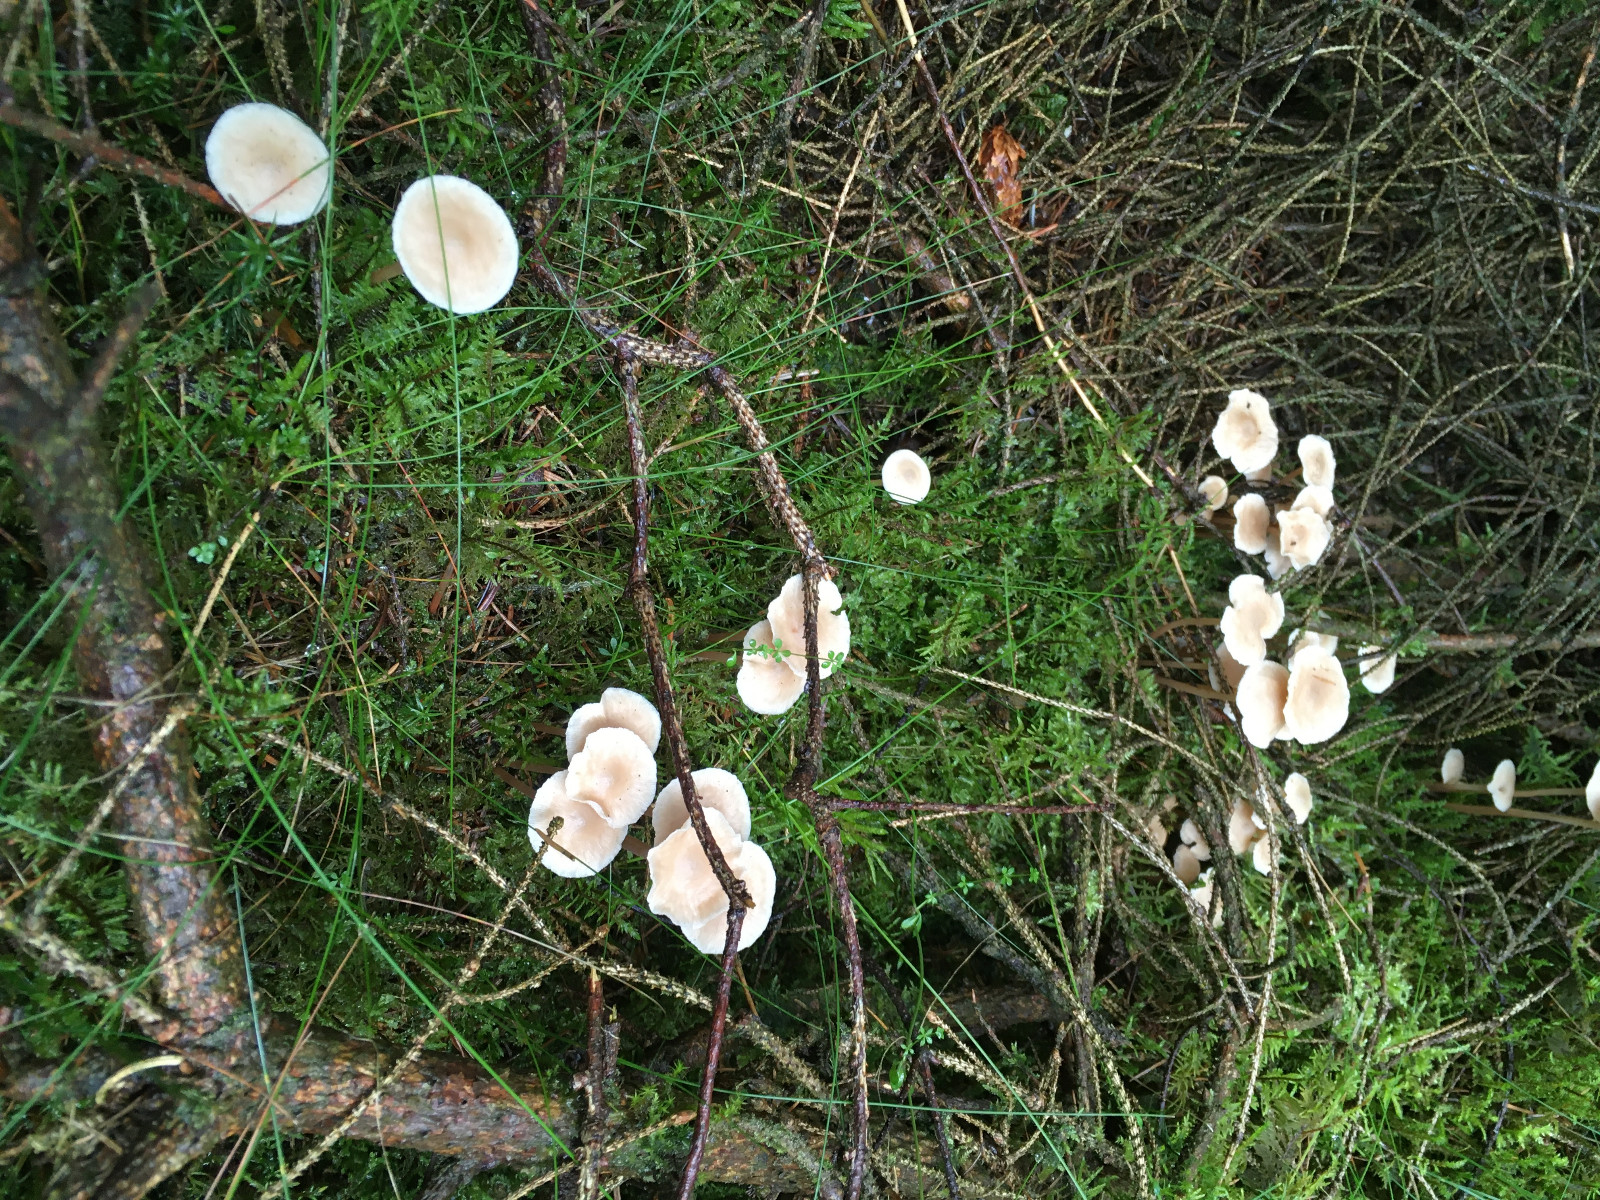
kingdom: Fungi
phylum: Basidiomycota
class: Agaricomycetes
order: Agaricales
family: Omphalotaceae
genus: Gymnopus
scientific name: Gymnopus
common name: fladhat
